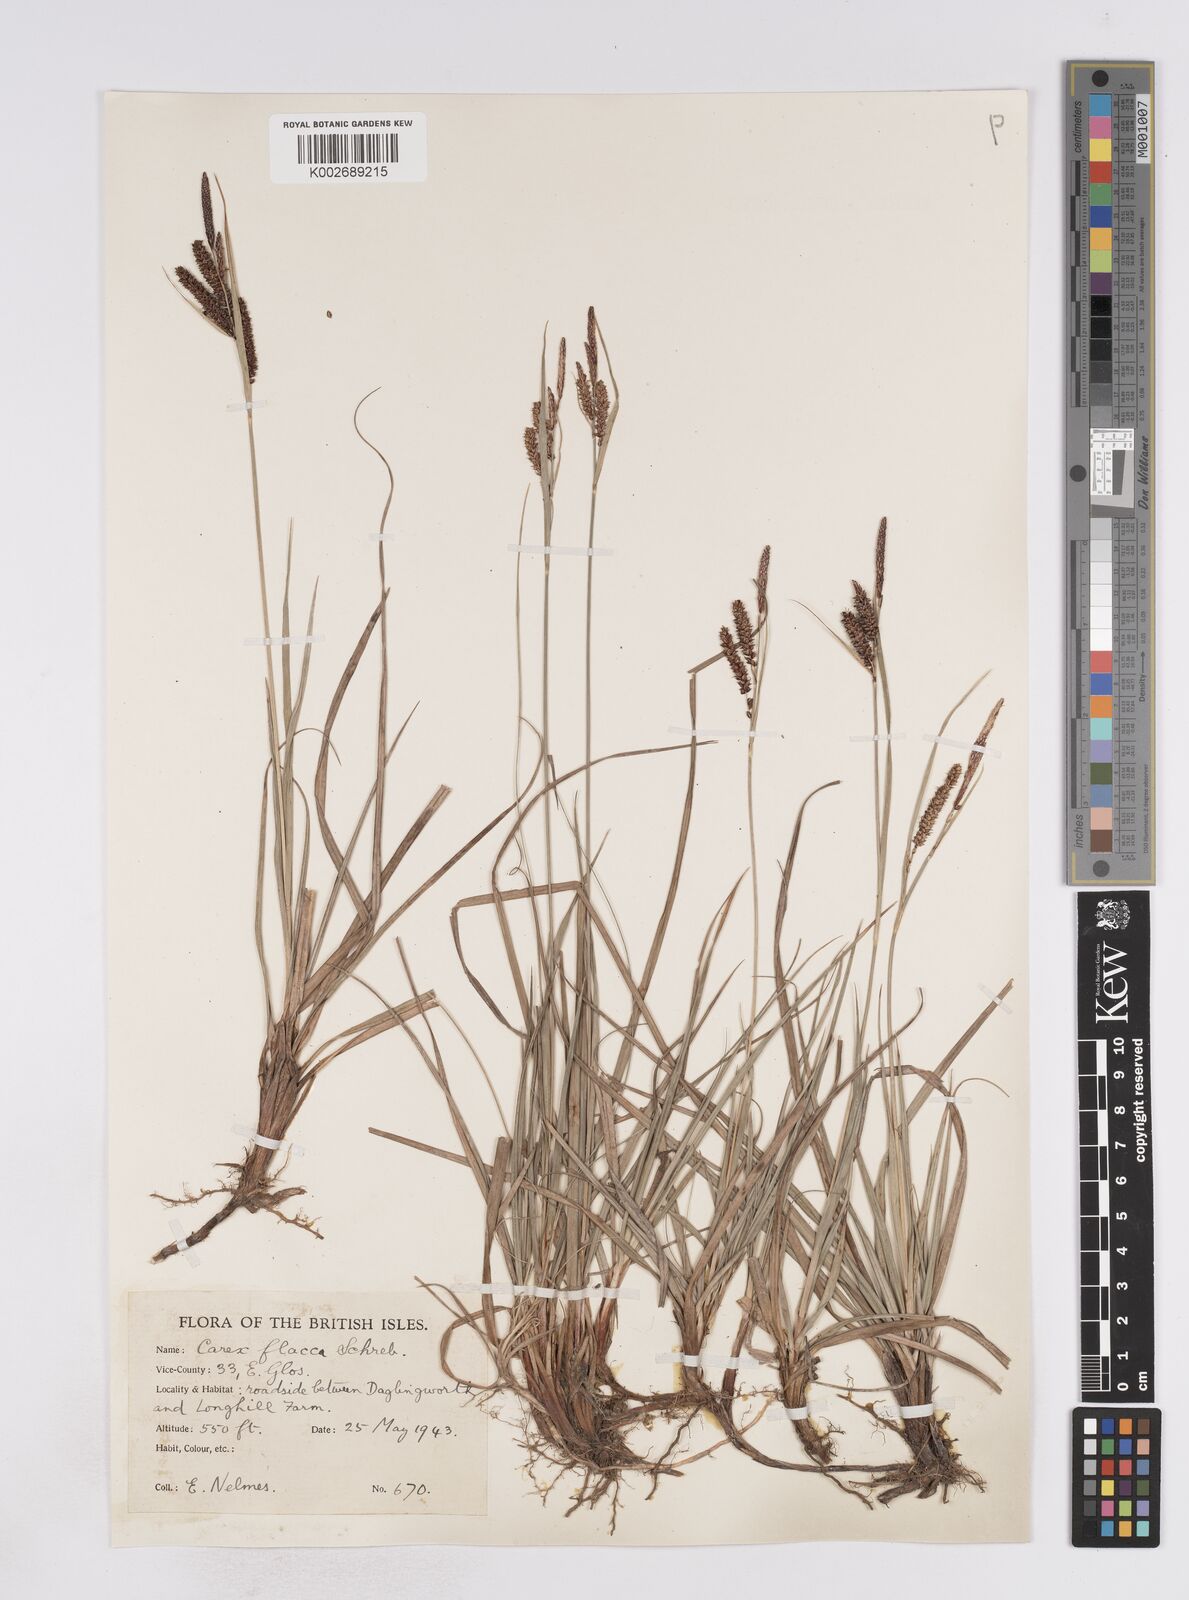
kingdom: Plantae
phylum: Tracheophyta
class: Liliopsida
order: Poales
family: Cyperaceae
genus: Carex
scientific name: Carex flacca
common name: Glaucous sedge
